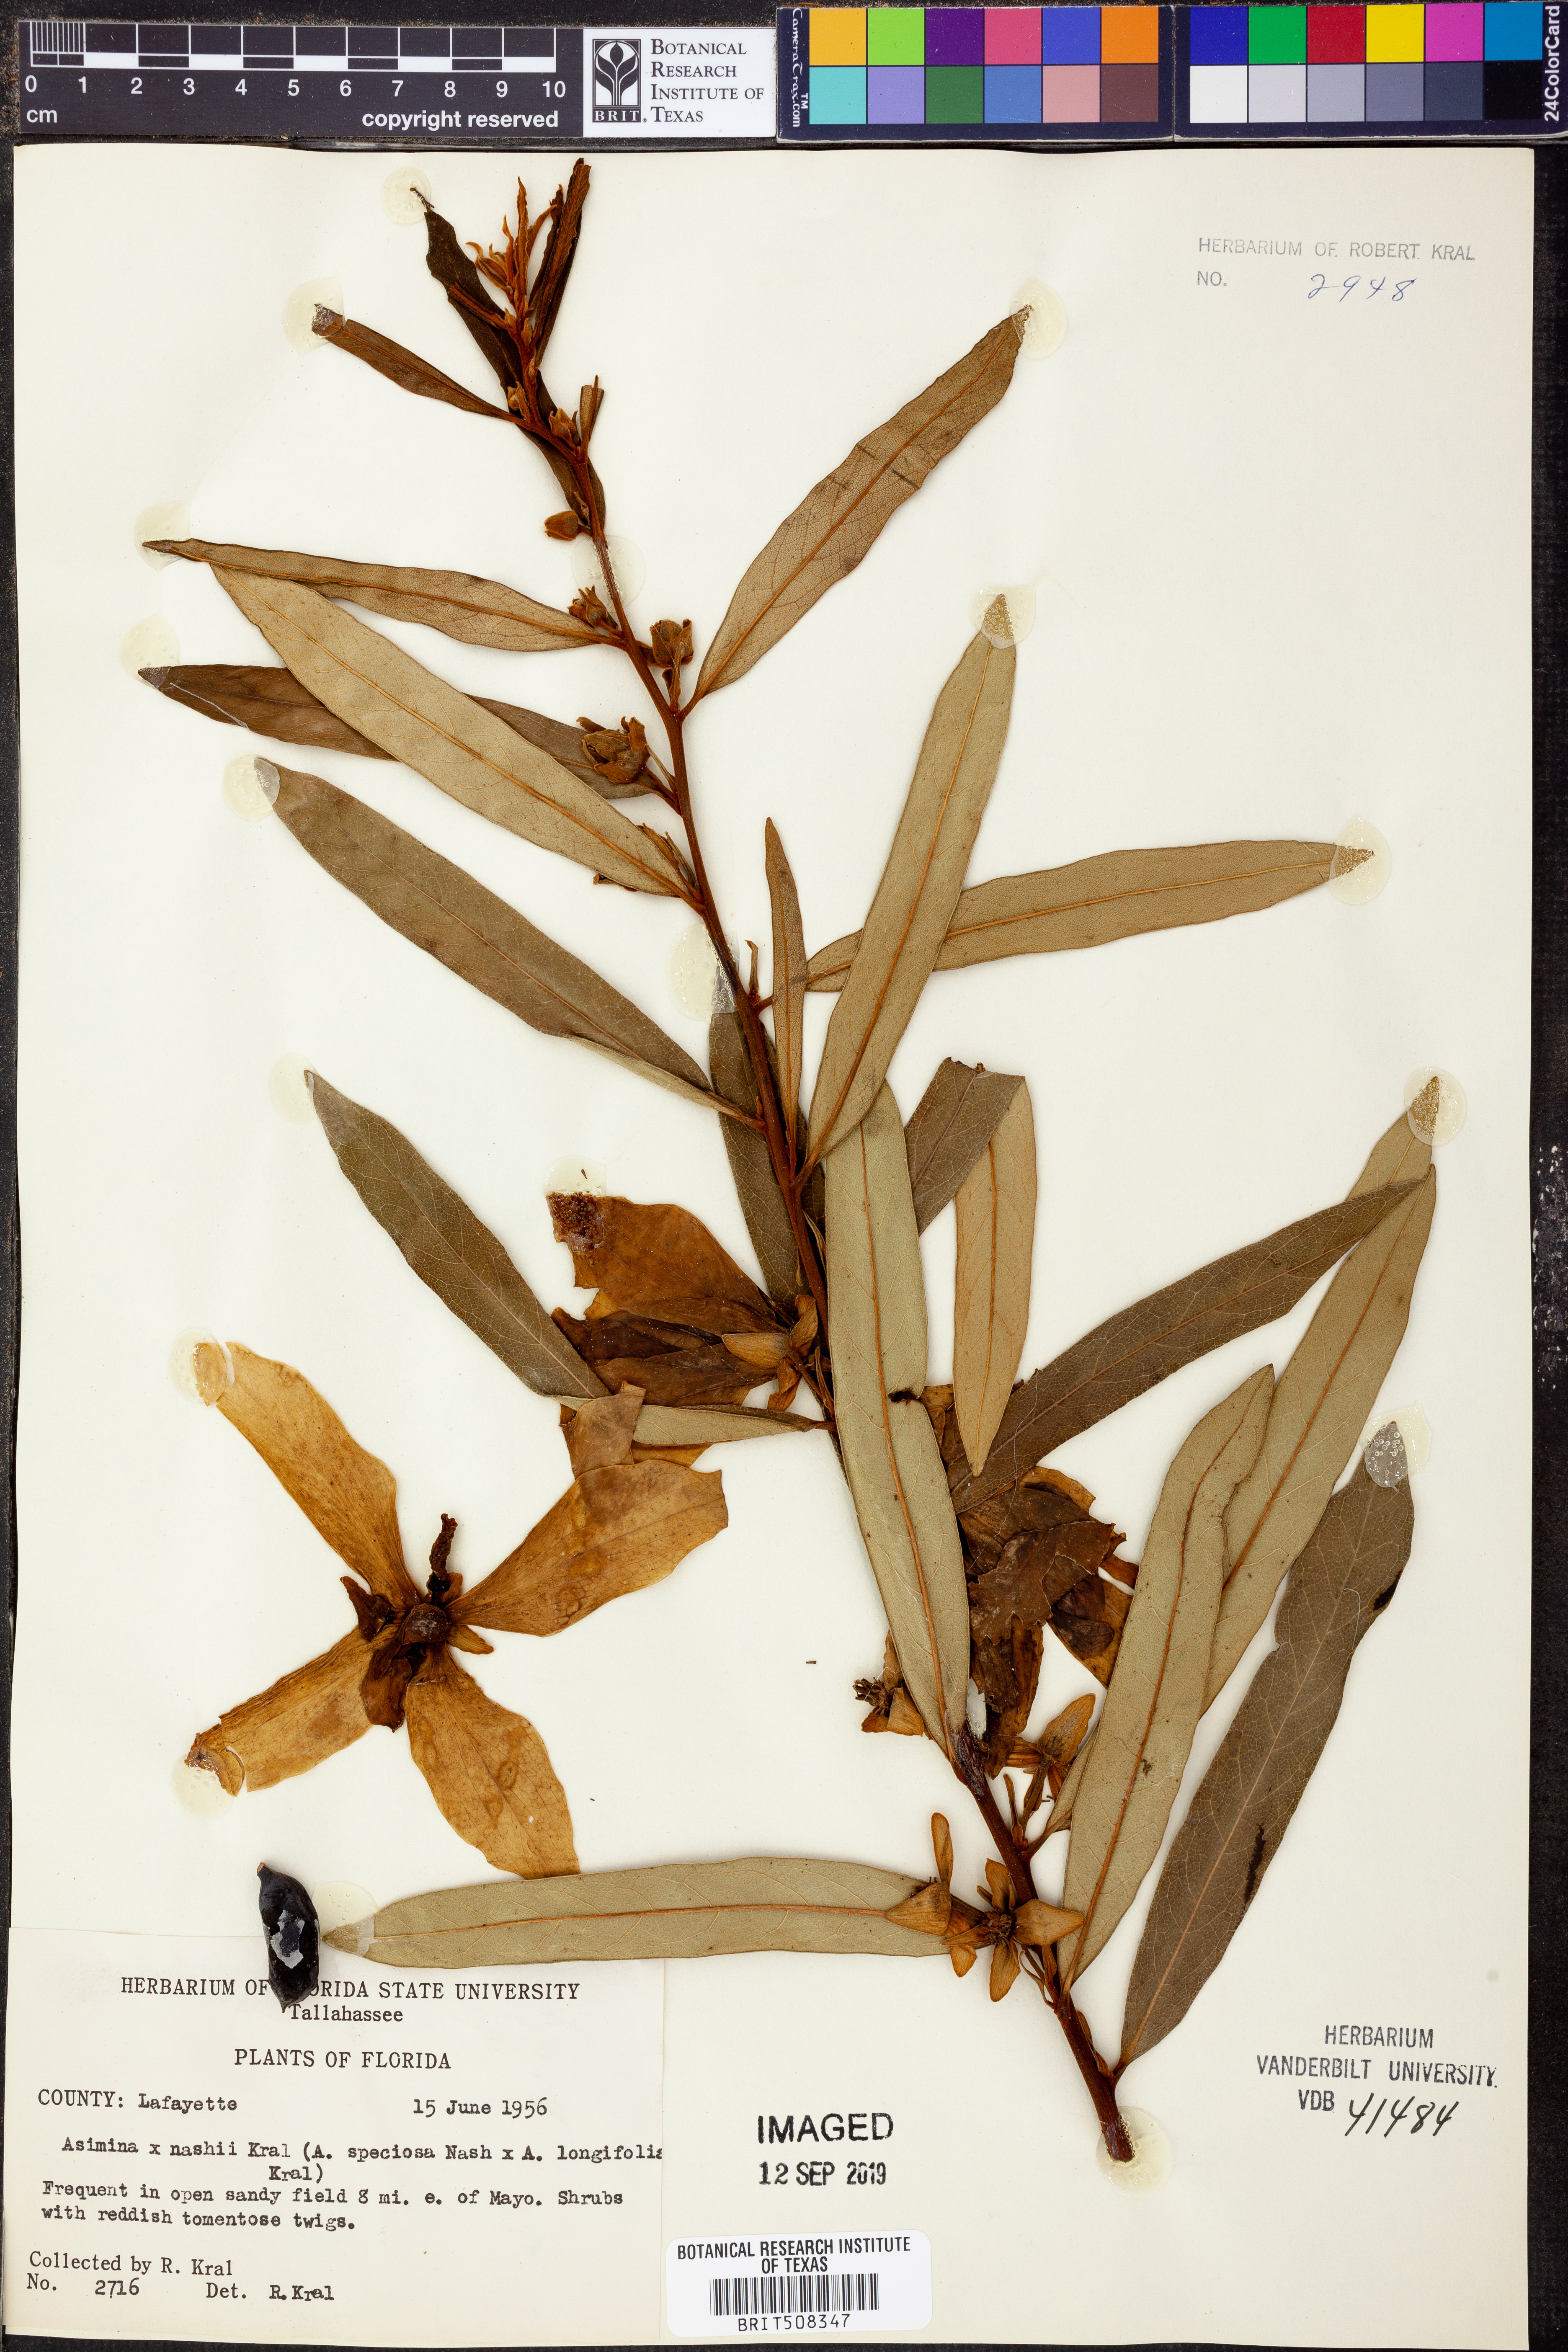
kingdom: Plantae
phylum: Tracheophyta
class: Magnoliopsida
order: Magnoliales
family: Annonaceae
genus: Asimina
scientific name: Asimina
